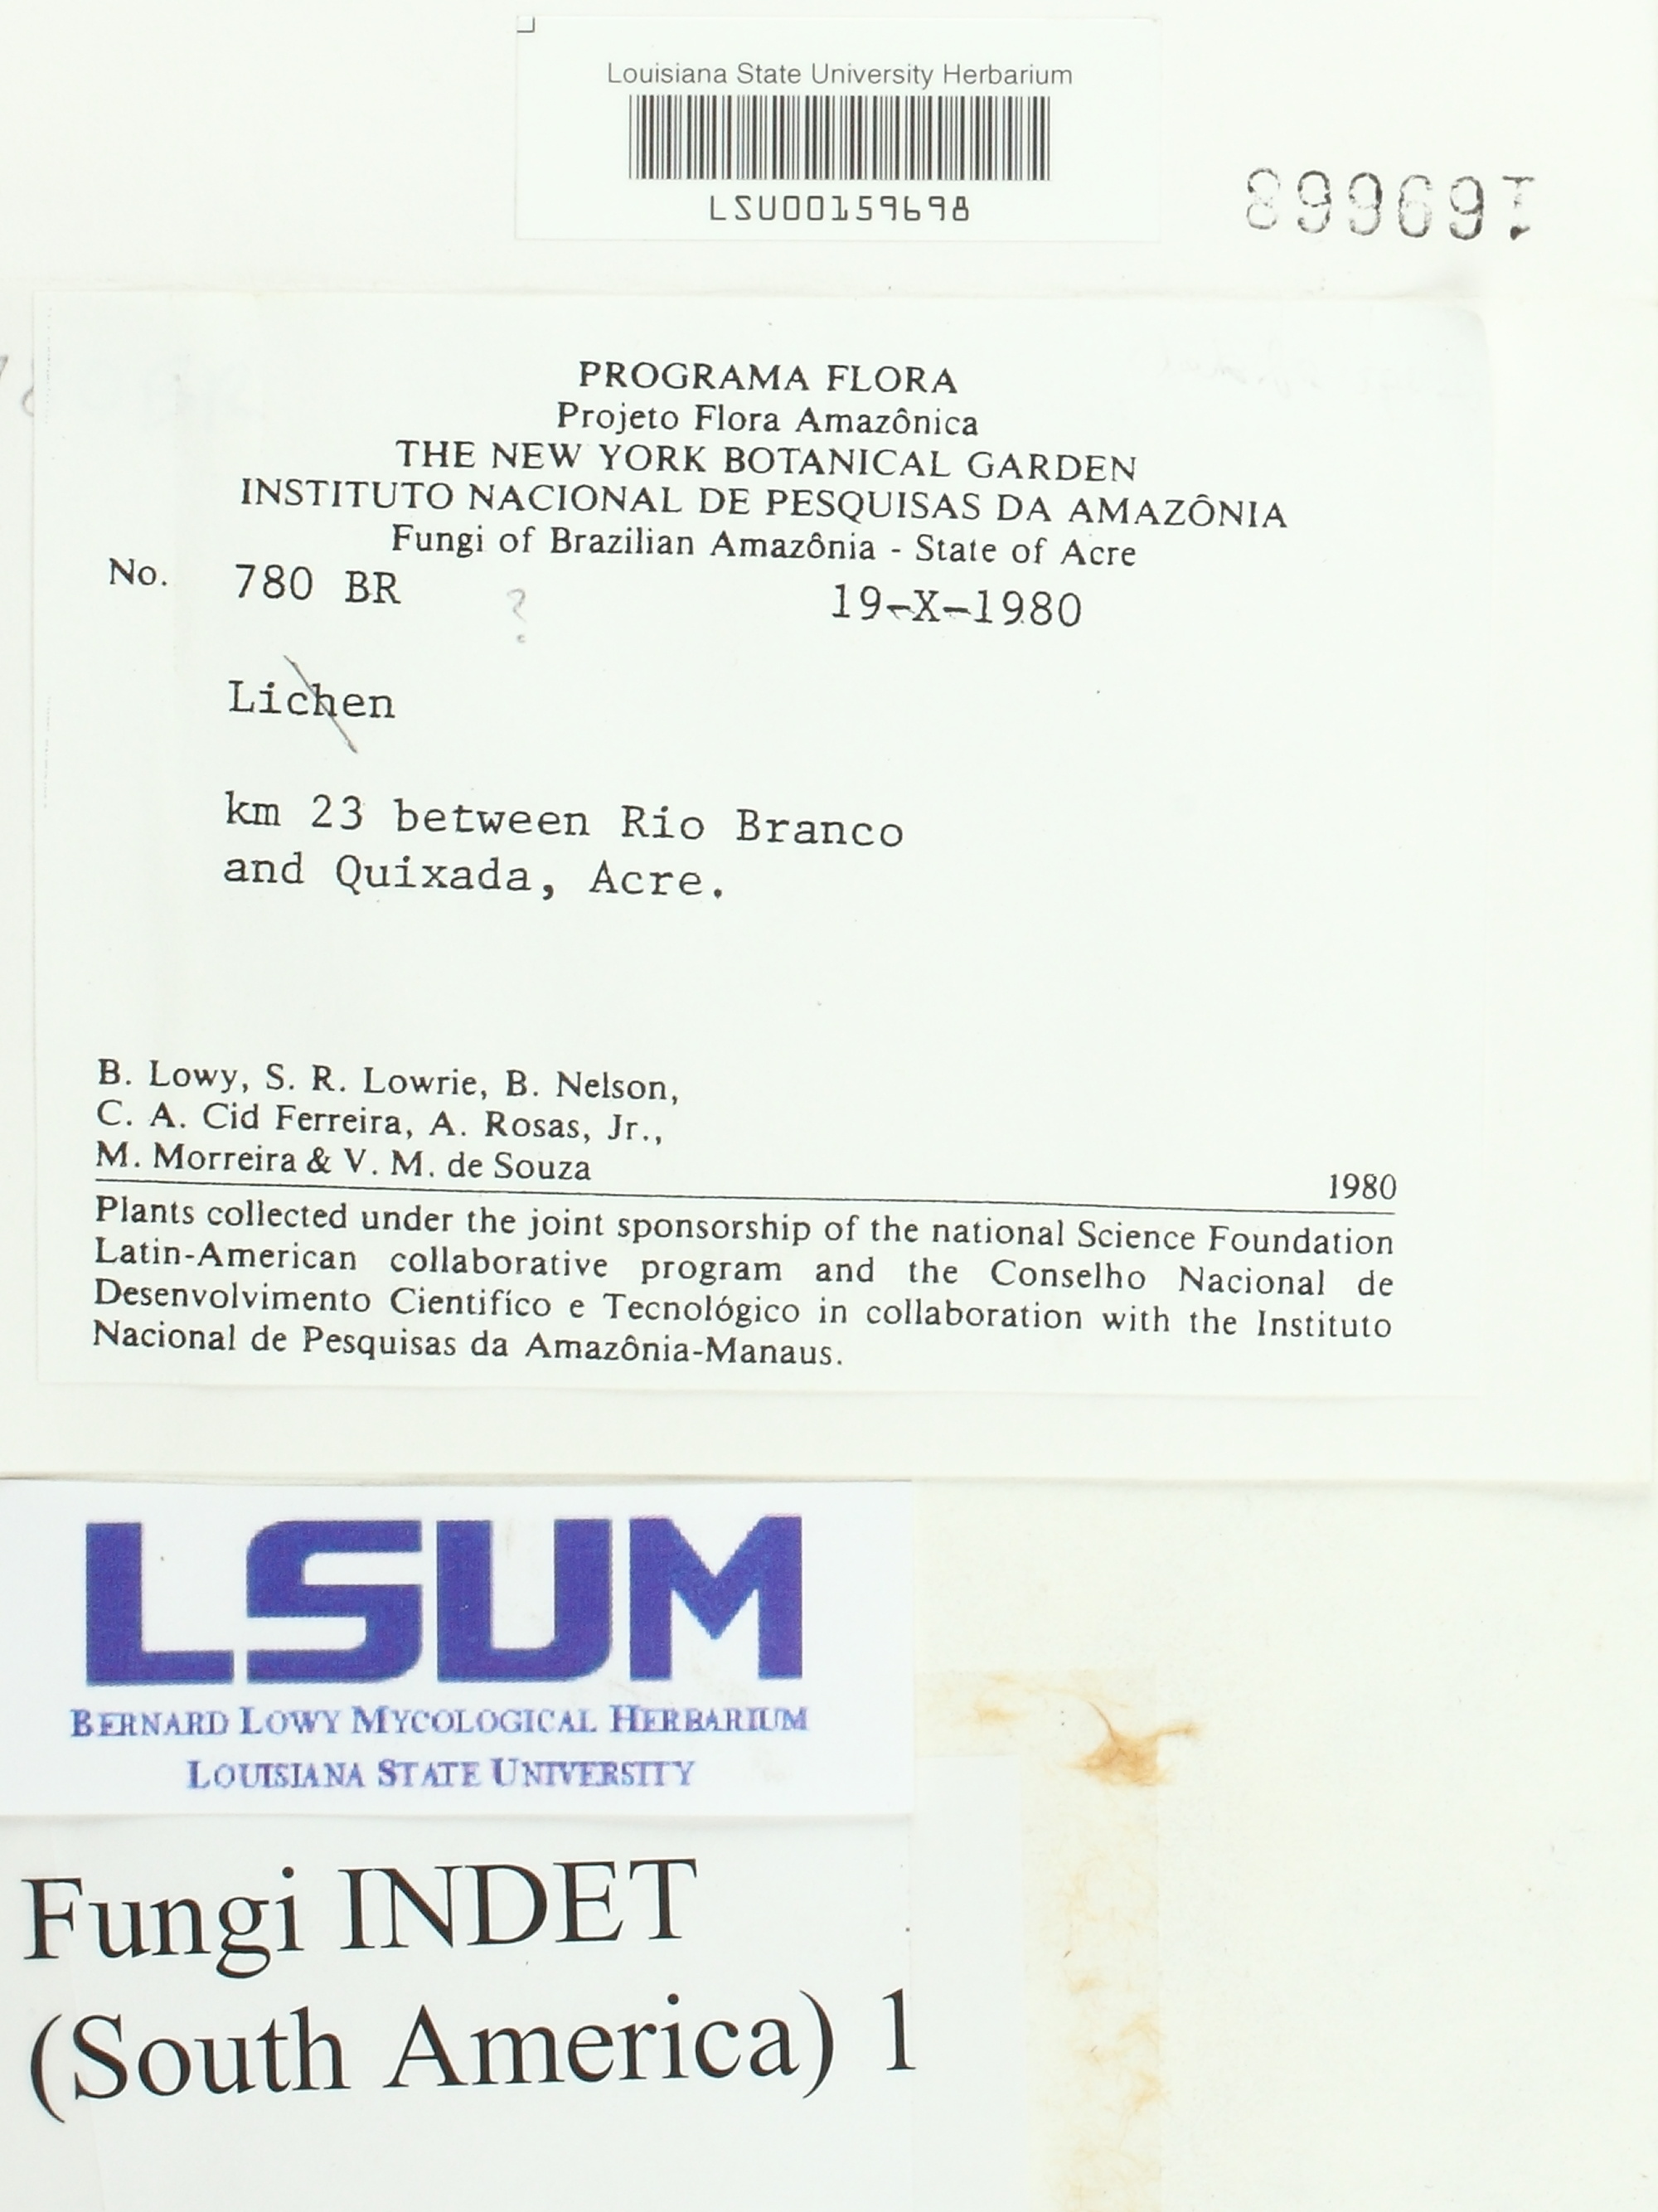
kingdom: Fungi
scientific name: Fungi
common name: Fungi
